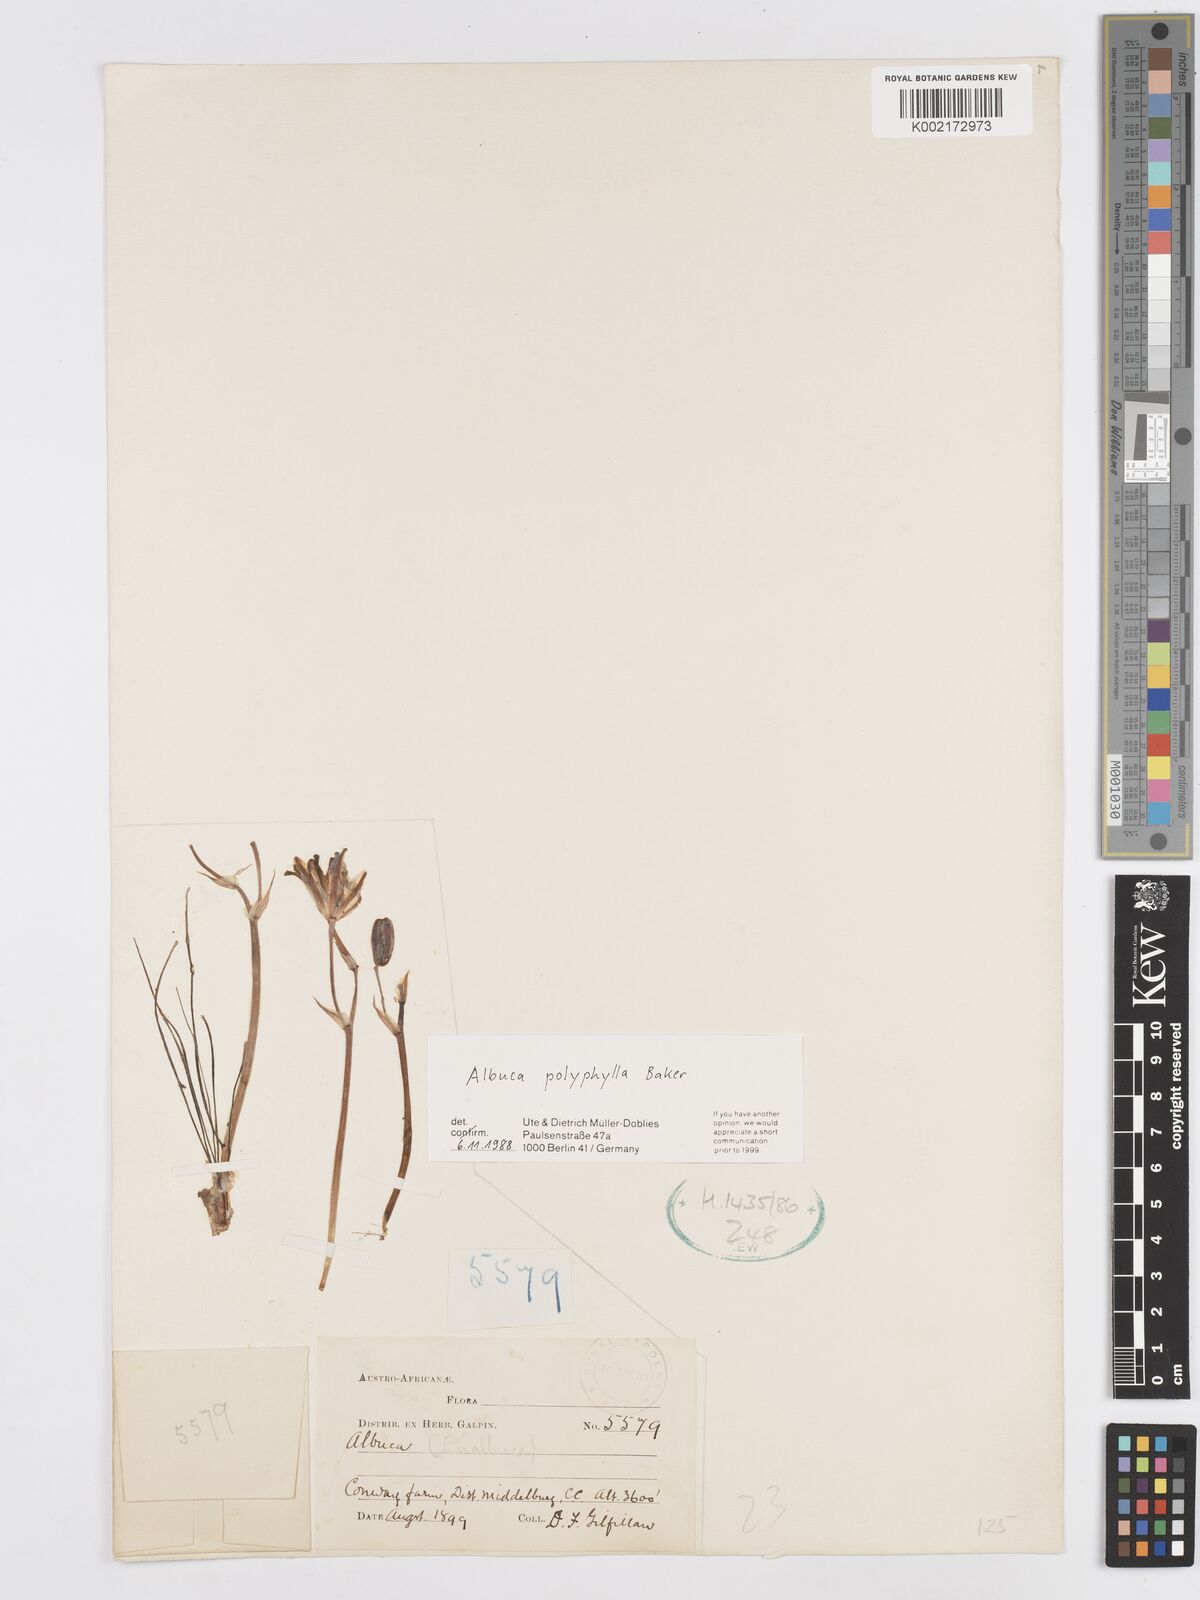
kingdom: Plantae
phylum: Tracheophyta
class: Liliopsida
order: Asparagales
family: Asparagaceae
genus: Albuca
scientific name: Albuca polyphylla
